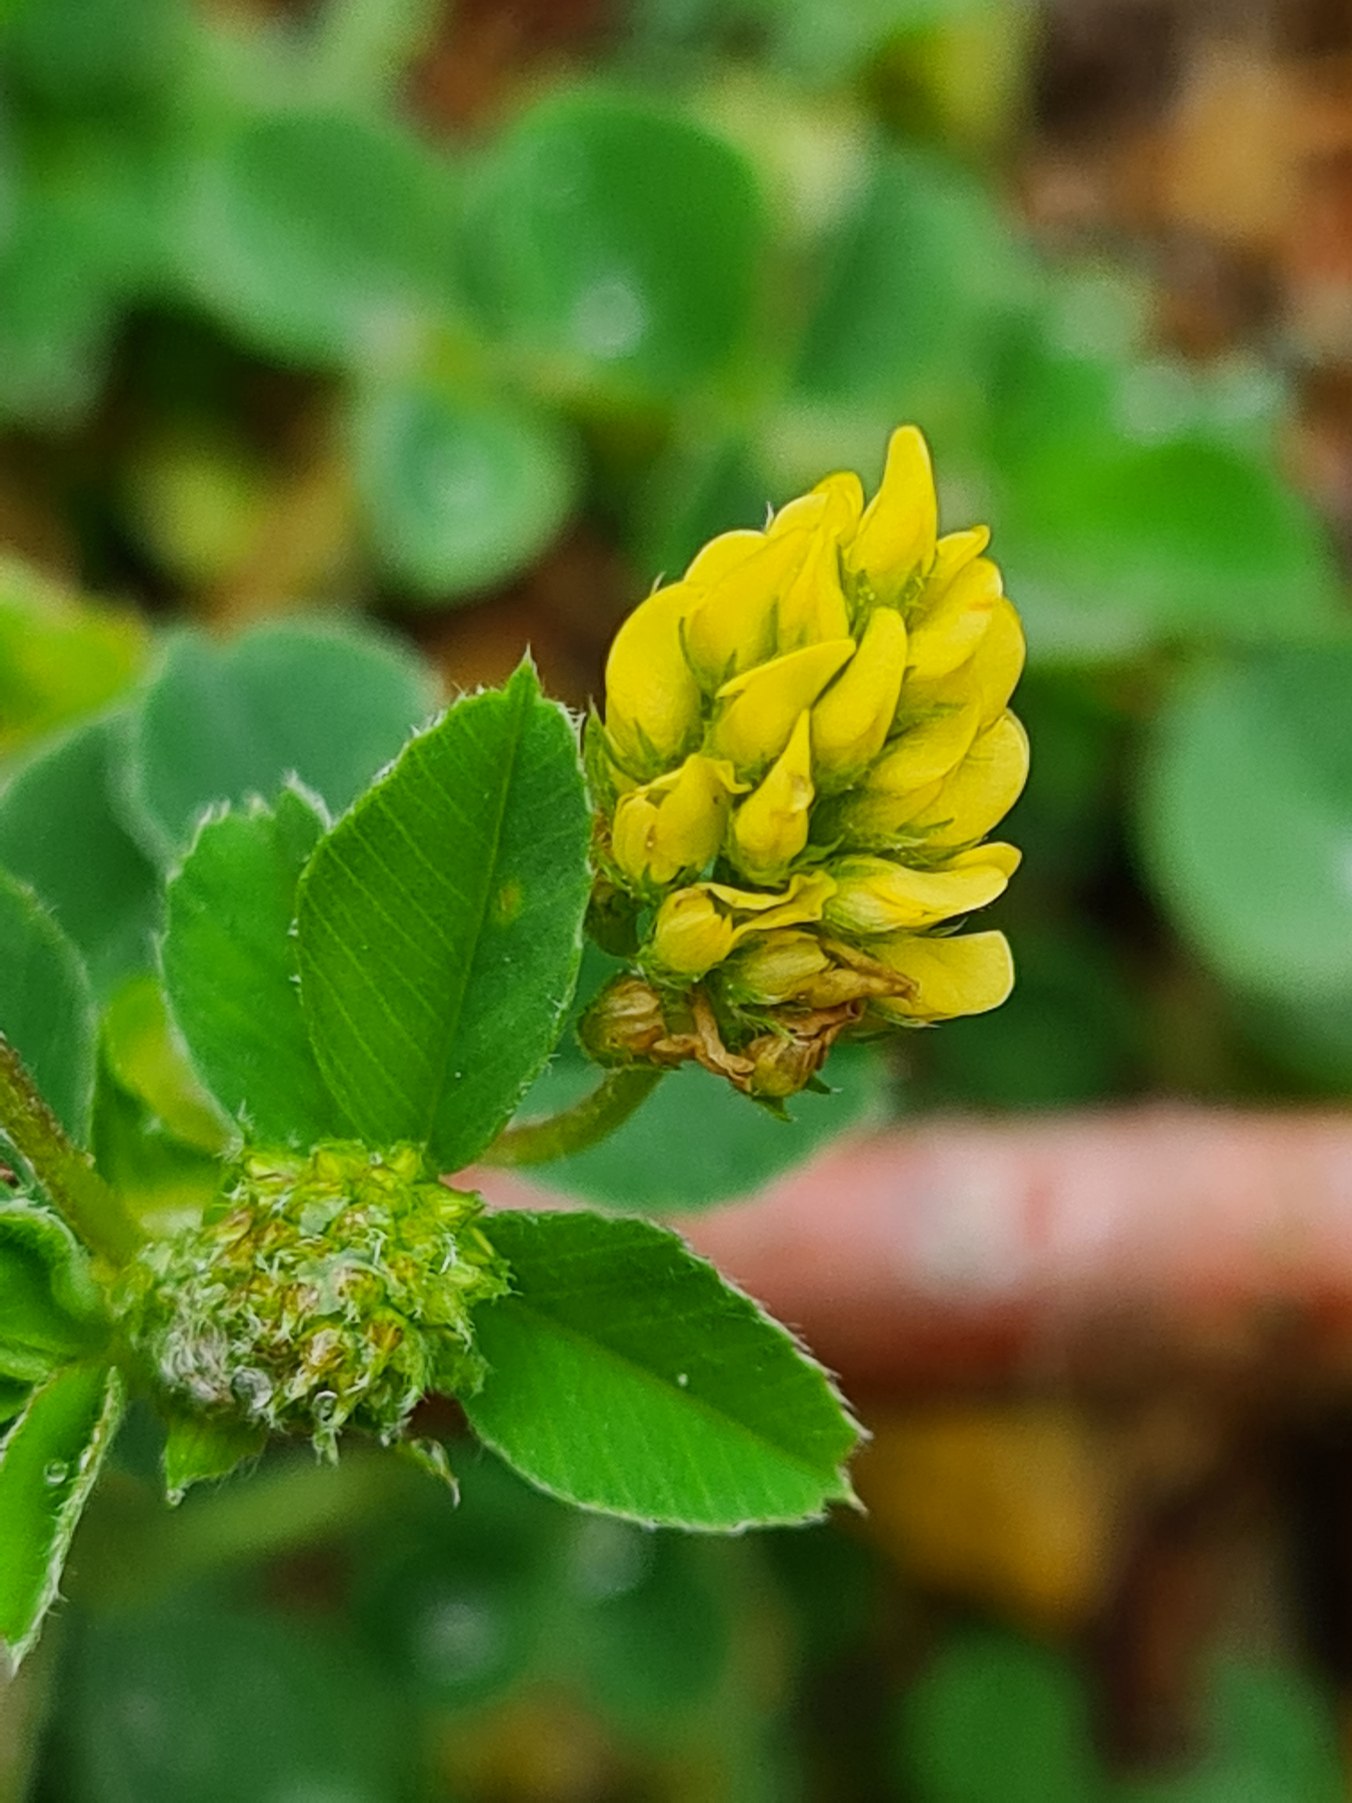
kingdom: Plantae
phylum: Tracheophyta
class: Magnoliopsida
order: Fabales
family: Fabaceae
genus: Medicago
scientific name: Medicago lupulina
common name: Humle-sneglebælg
